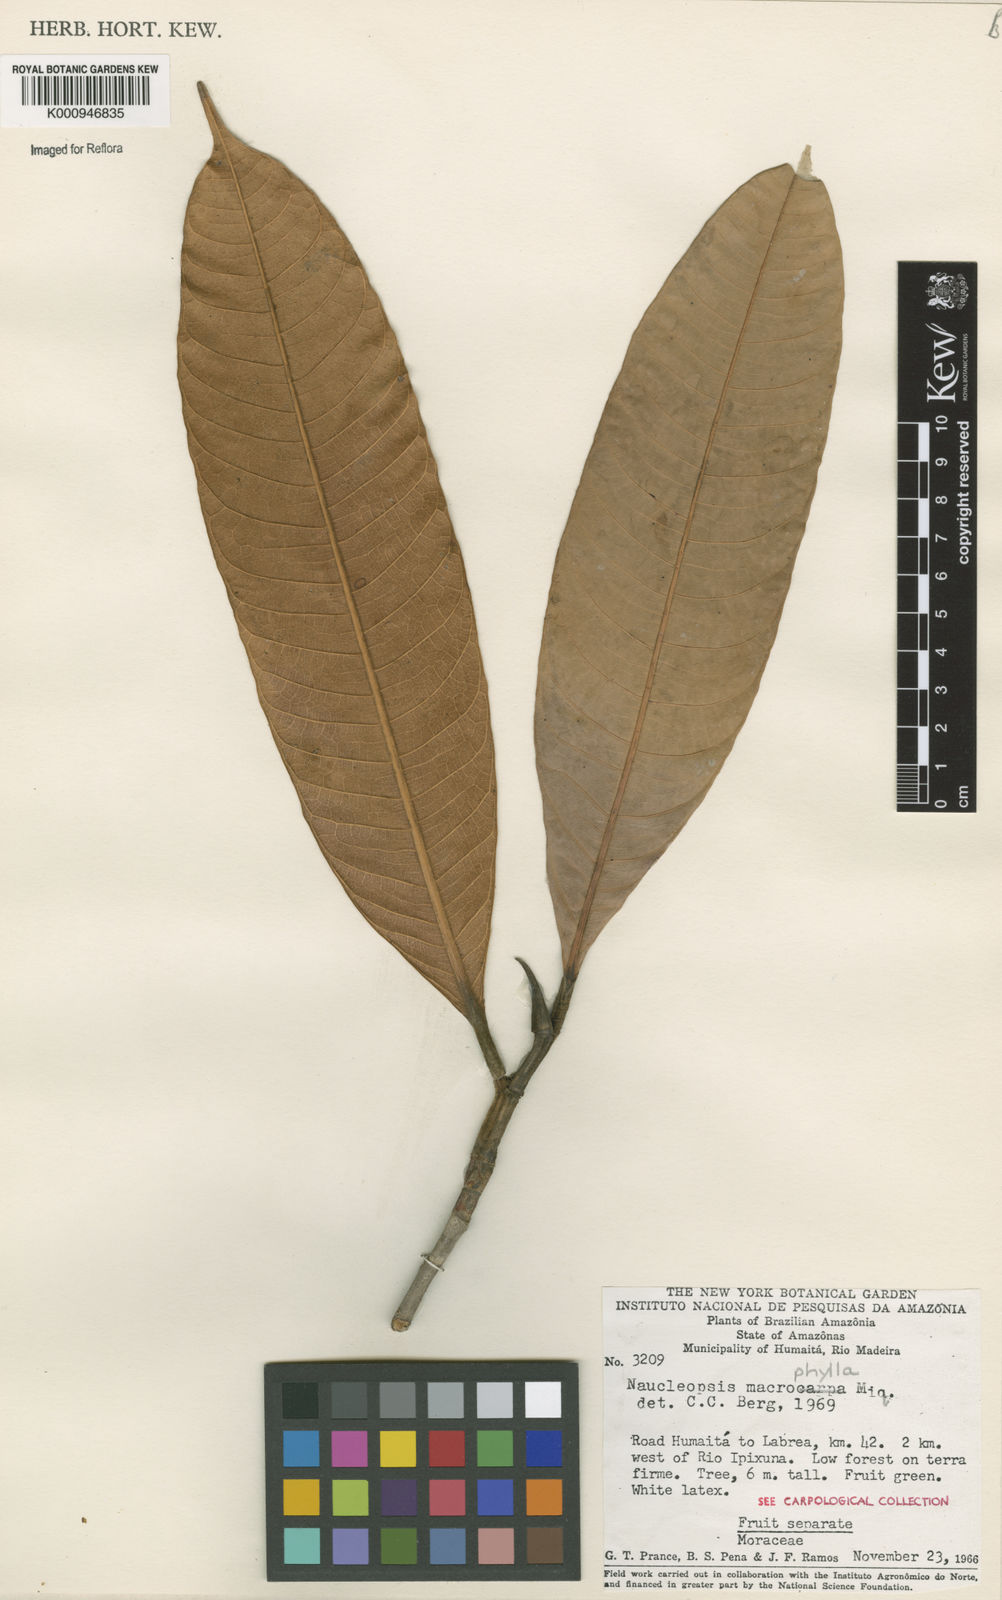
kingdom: Plantae
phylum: Tracheophyta
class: Magnoliopsida
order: Rosales
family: Moraceae
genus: Naucleopsis
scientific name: Naucleopsis macrophylla
